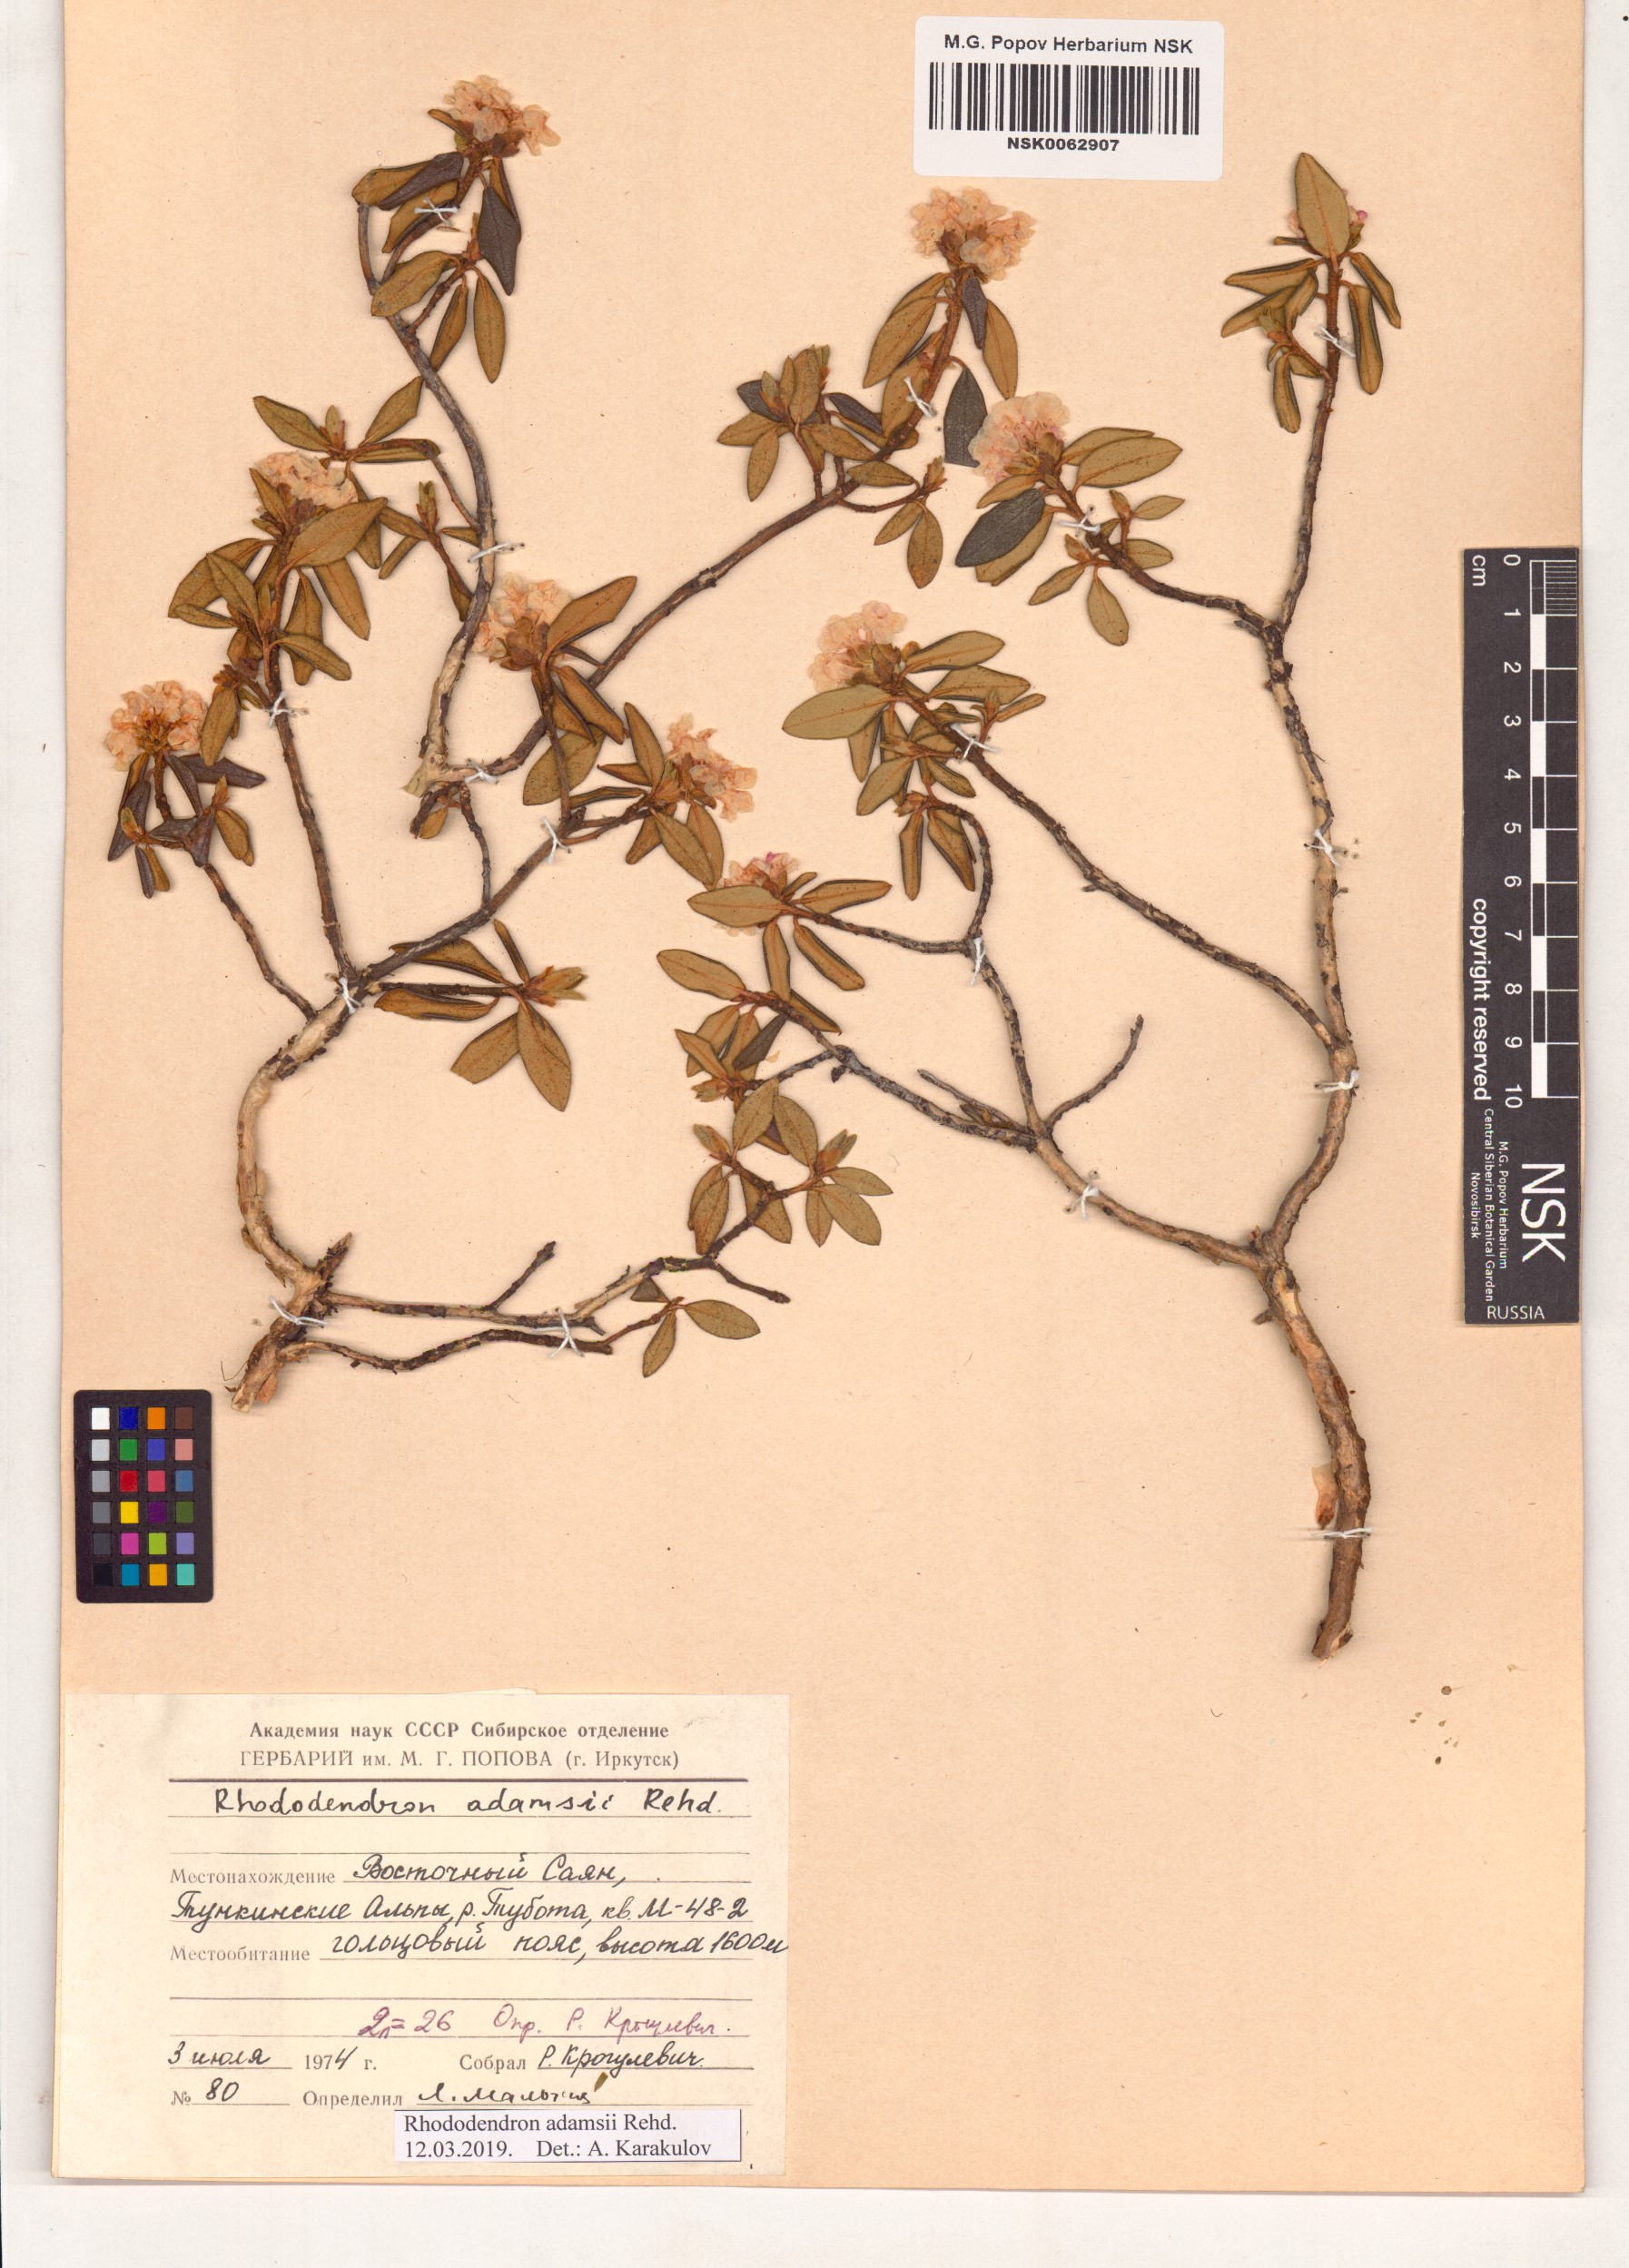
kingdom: Plantae
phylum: Tracheophyta
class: Magnoliopsida
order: Ericales
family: Ericaceae
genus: Rhododendron
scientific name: Rhododendron adamsii
